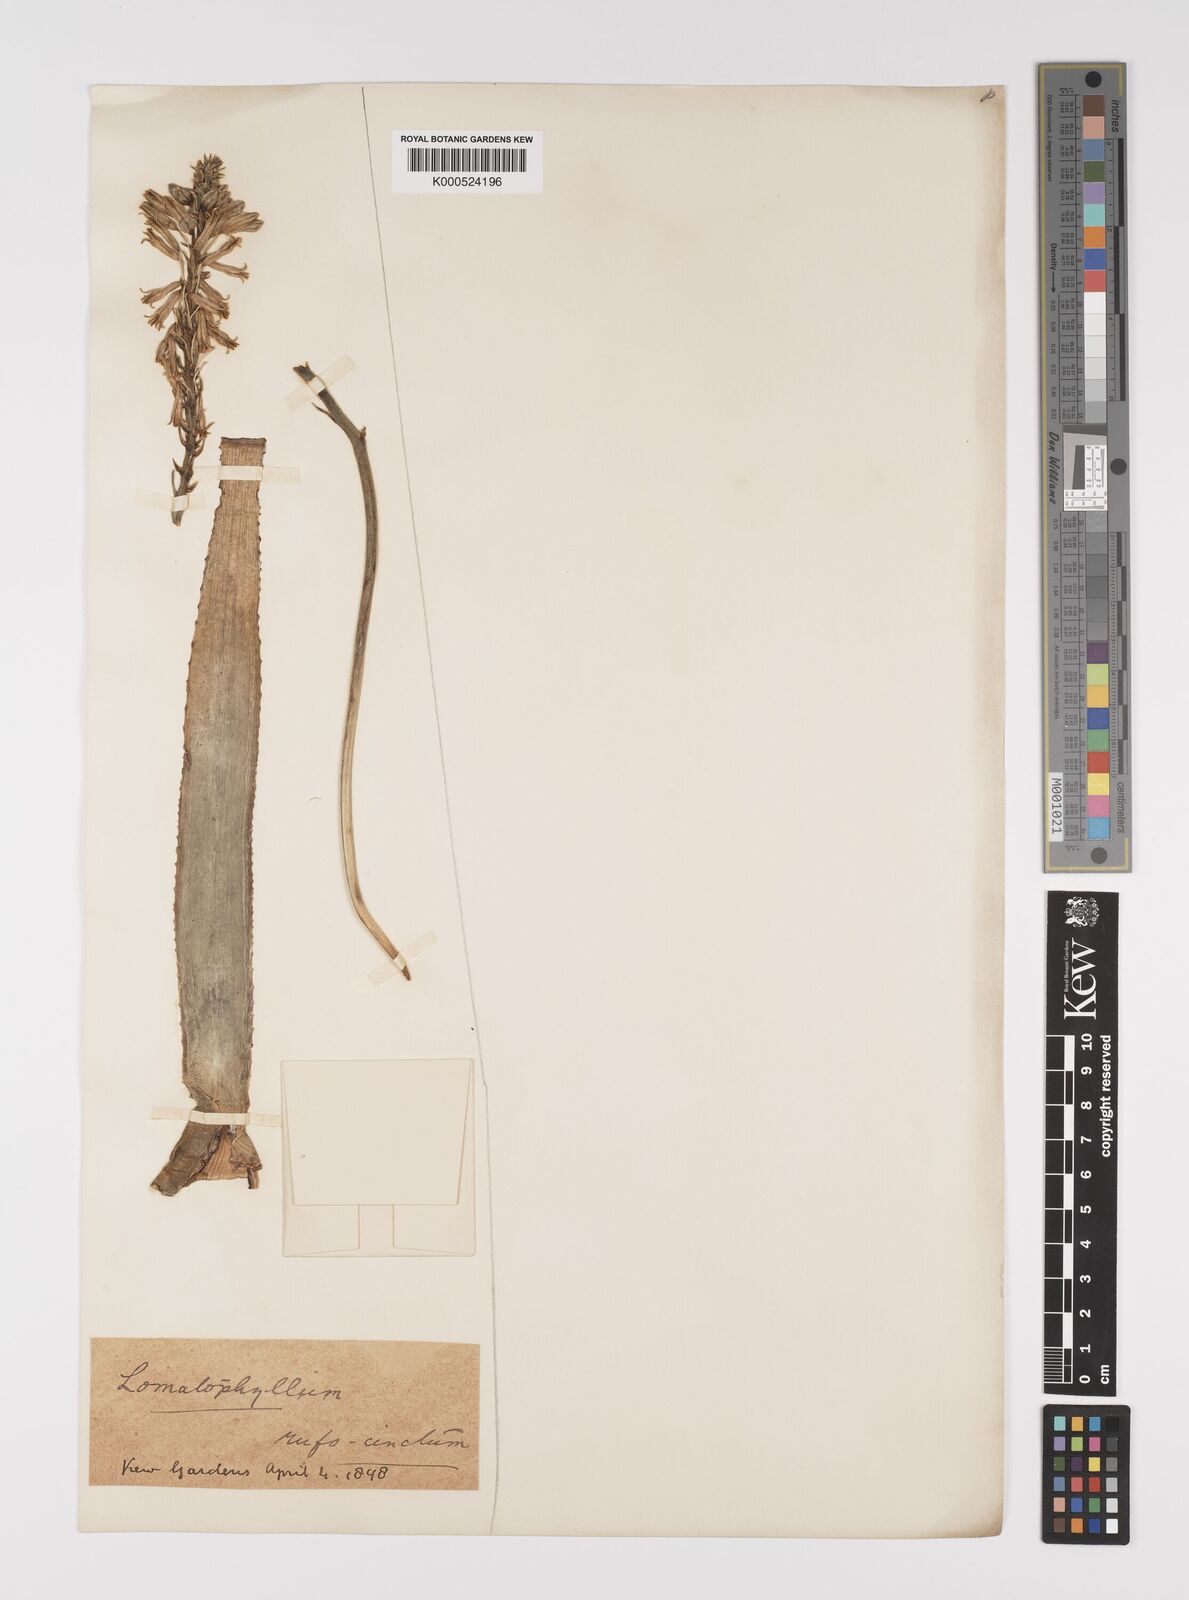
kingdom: Plantae
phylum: Tracheophyta
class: Liliopsida
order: Asparagales
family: Asphodelaceae
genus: Aloe
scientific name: Aloe purpurea
